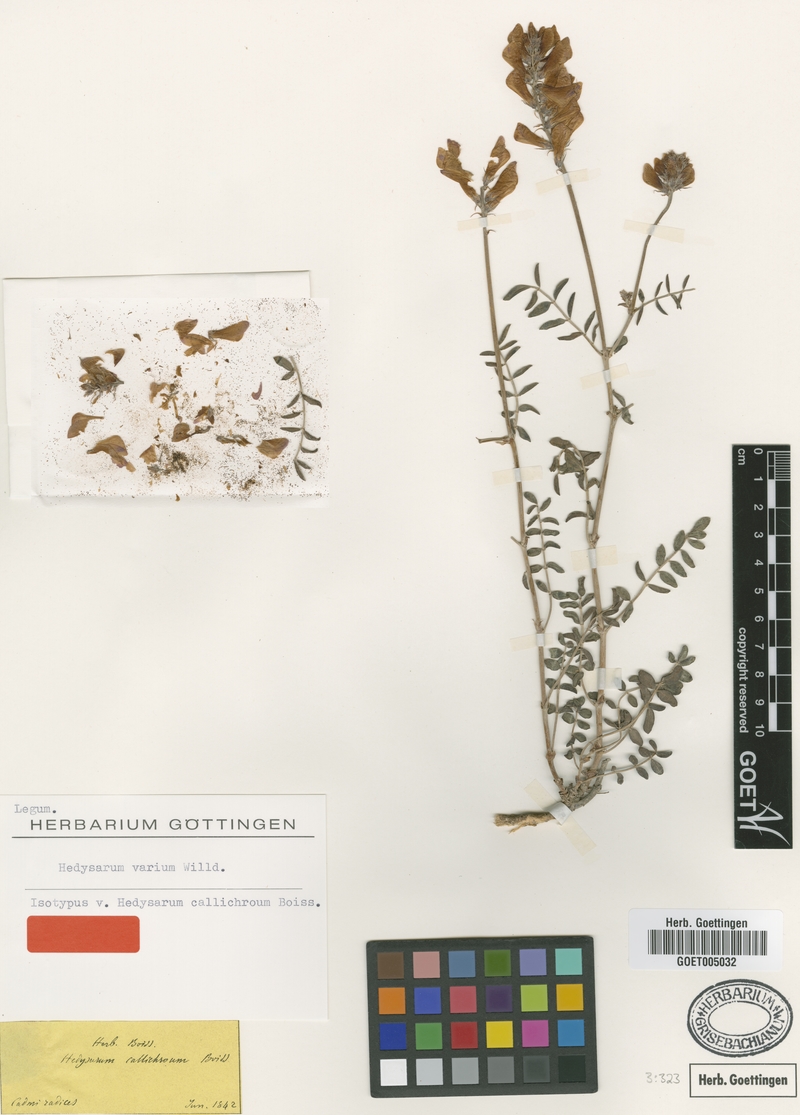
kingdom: Plantae
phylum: Tracheophyta
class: Magnoliopsida
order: Fabales
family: Fabaceae
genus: Hedysarum
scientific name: Hedysarum varium
